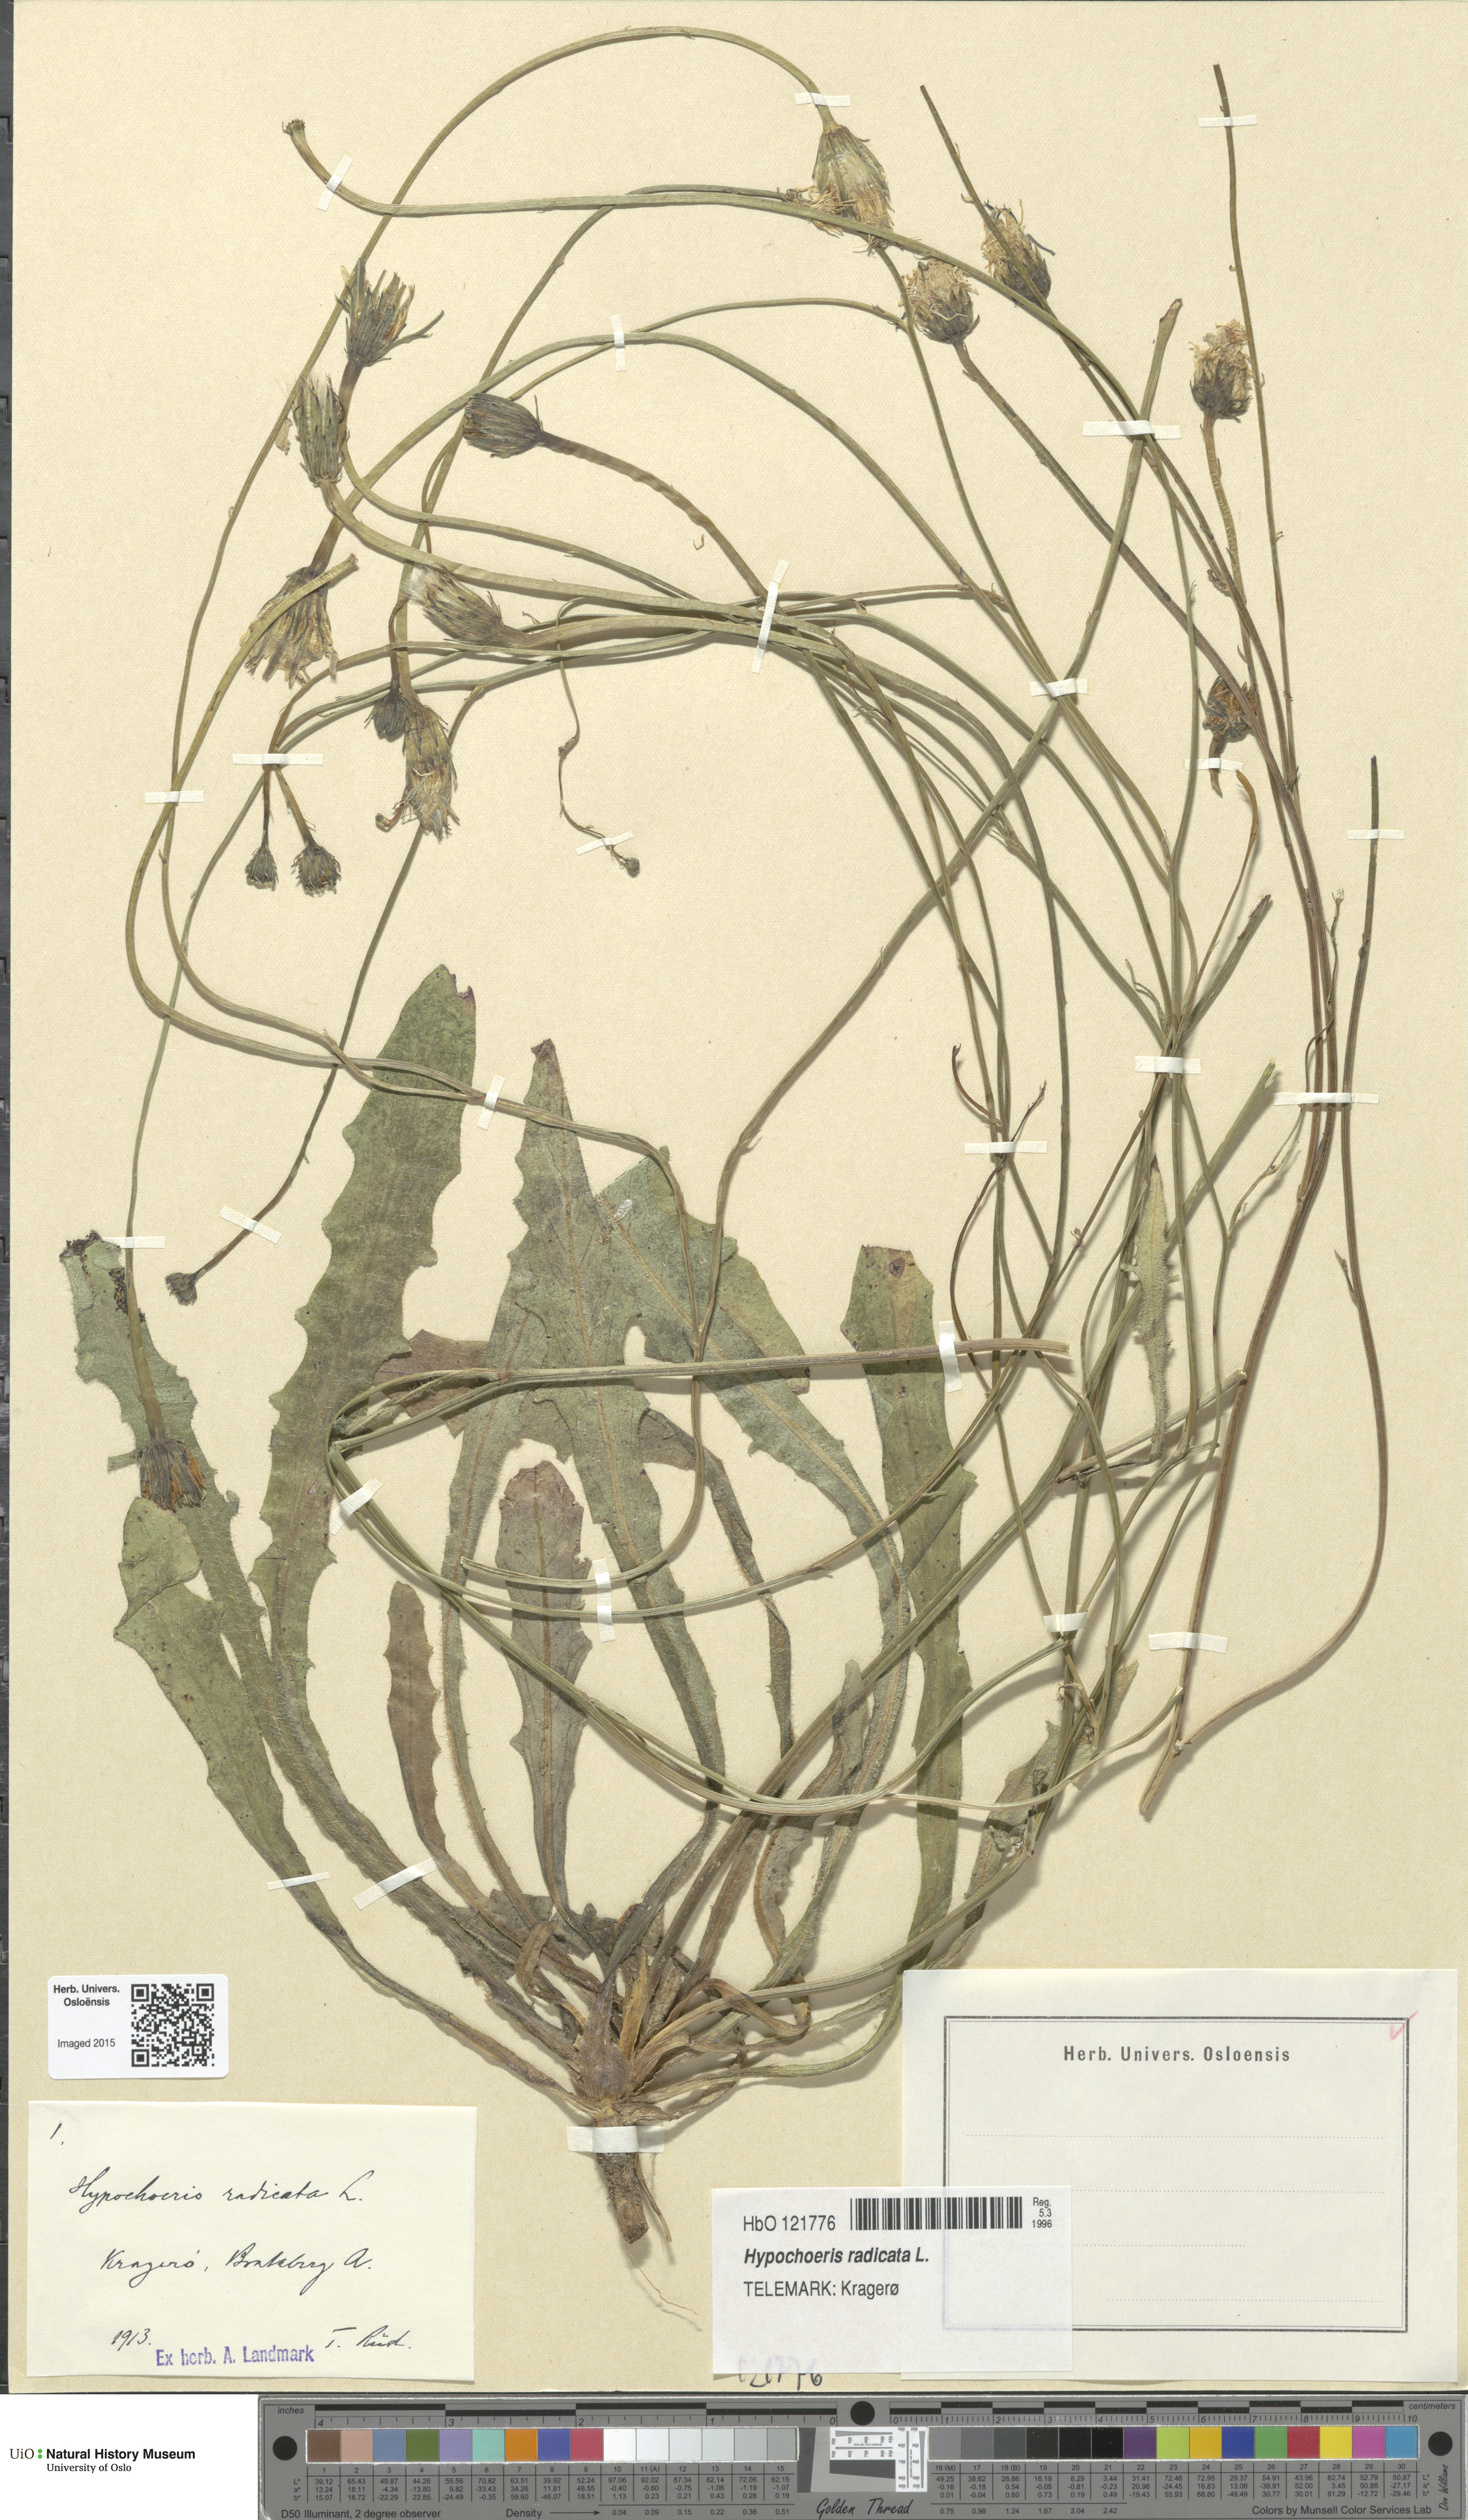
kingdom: Plantae
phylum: Tracheophyta
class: Magnoliopsida
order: Asterales
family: Asteraceae
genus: Hypochaeris
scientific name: Hypochaeris radicata
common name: Flatweed
